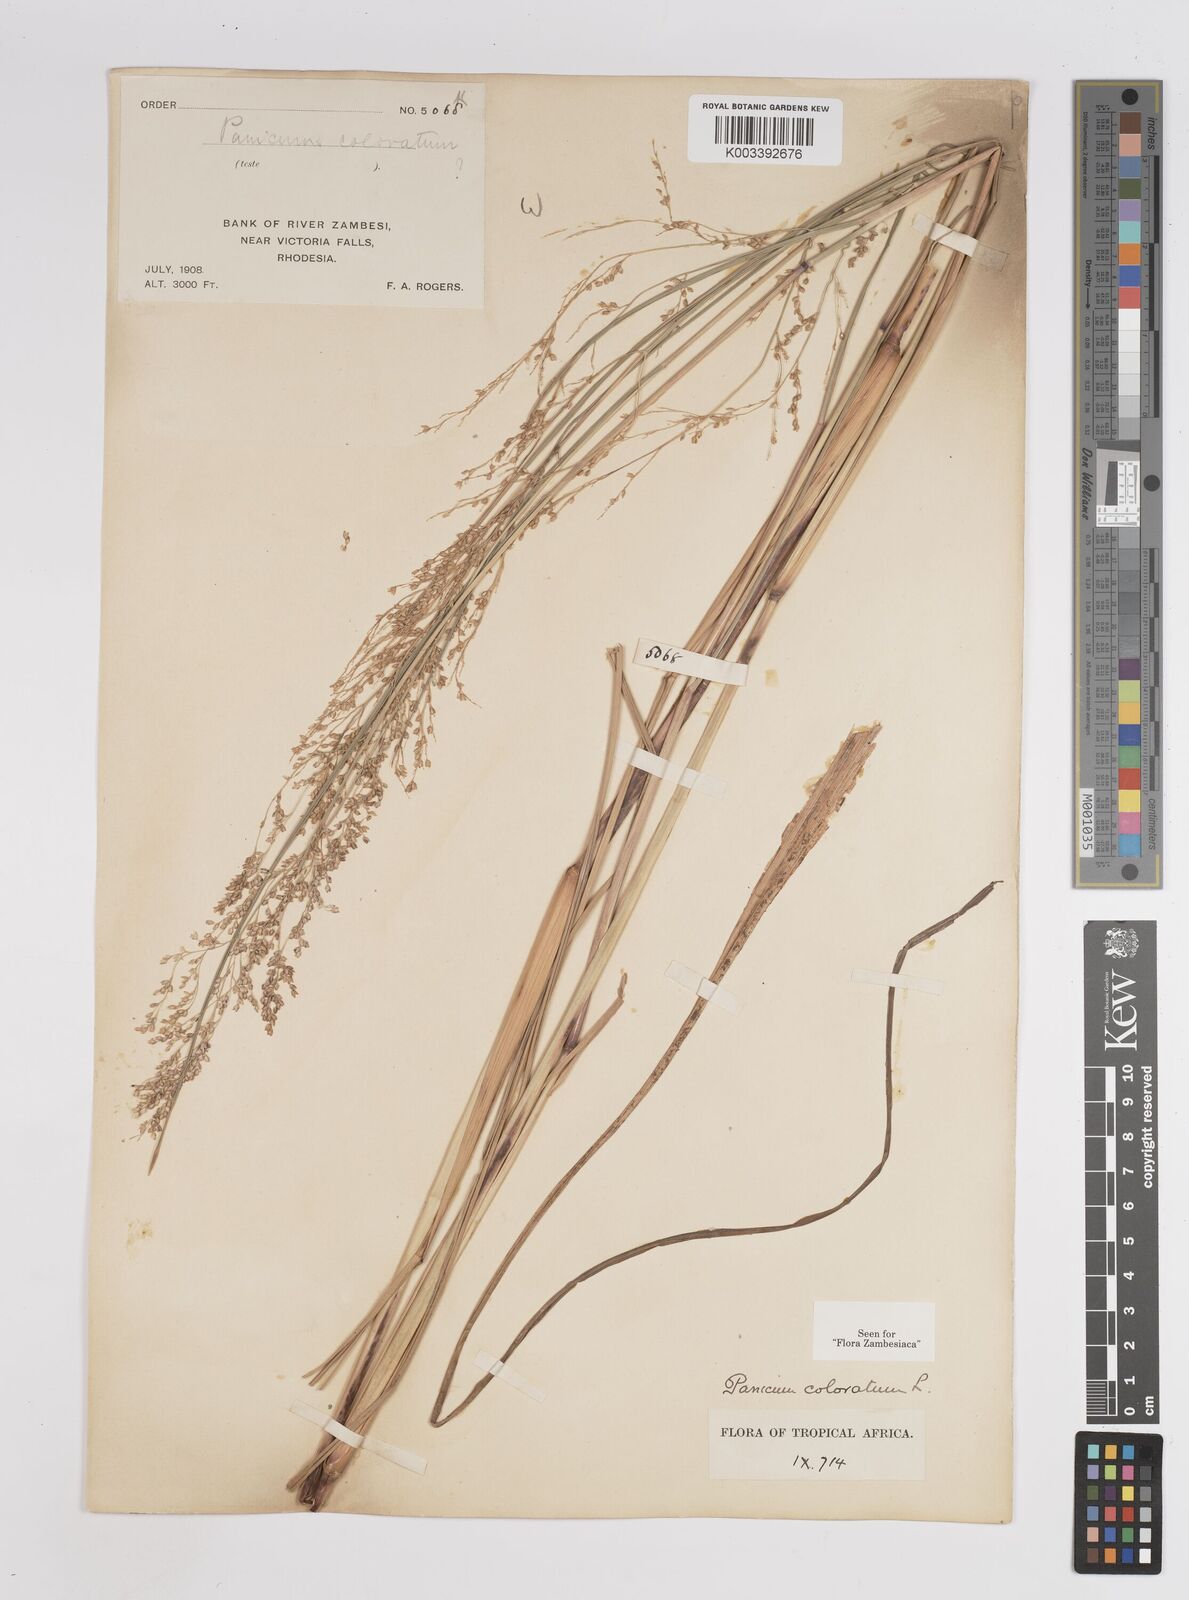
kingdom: Plantae
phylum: Tracheophyta
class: Liliopsida
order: Poales
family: Poaceae
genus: Panicum
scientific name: Panicum
